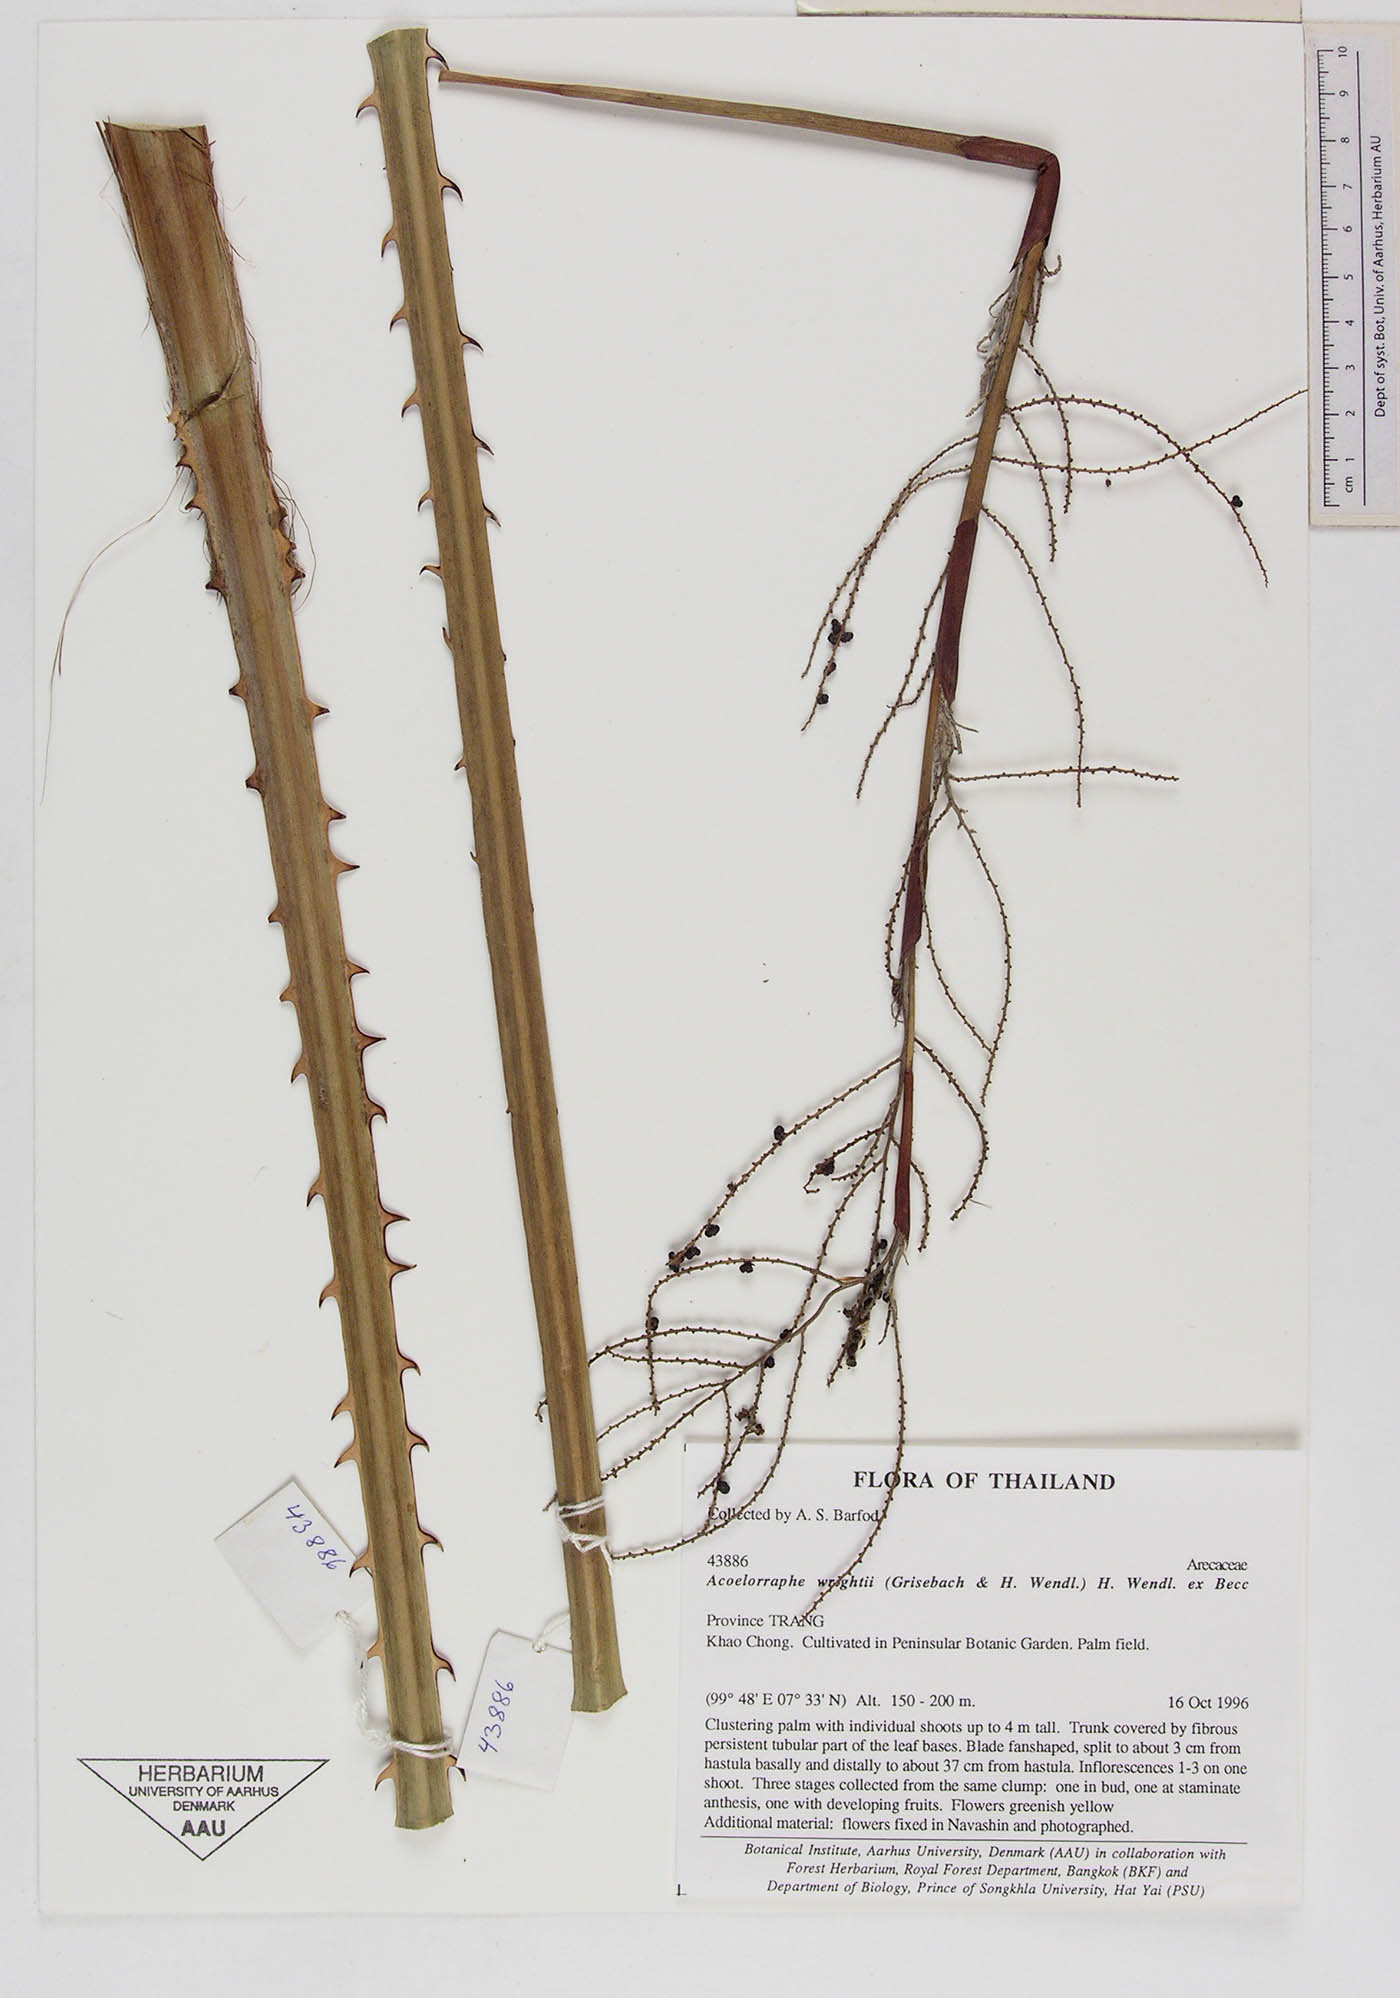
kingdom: Plantae
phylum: Tracheophyta
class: Liliopsida
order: Arecales
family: Arecaceae
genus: Acoelorraphe
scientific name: Acoelorraphe wrightii
